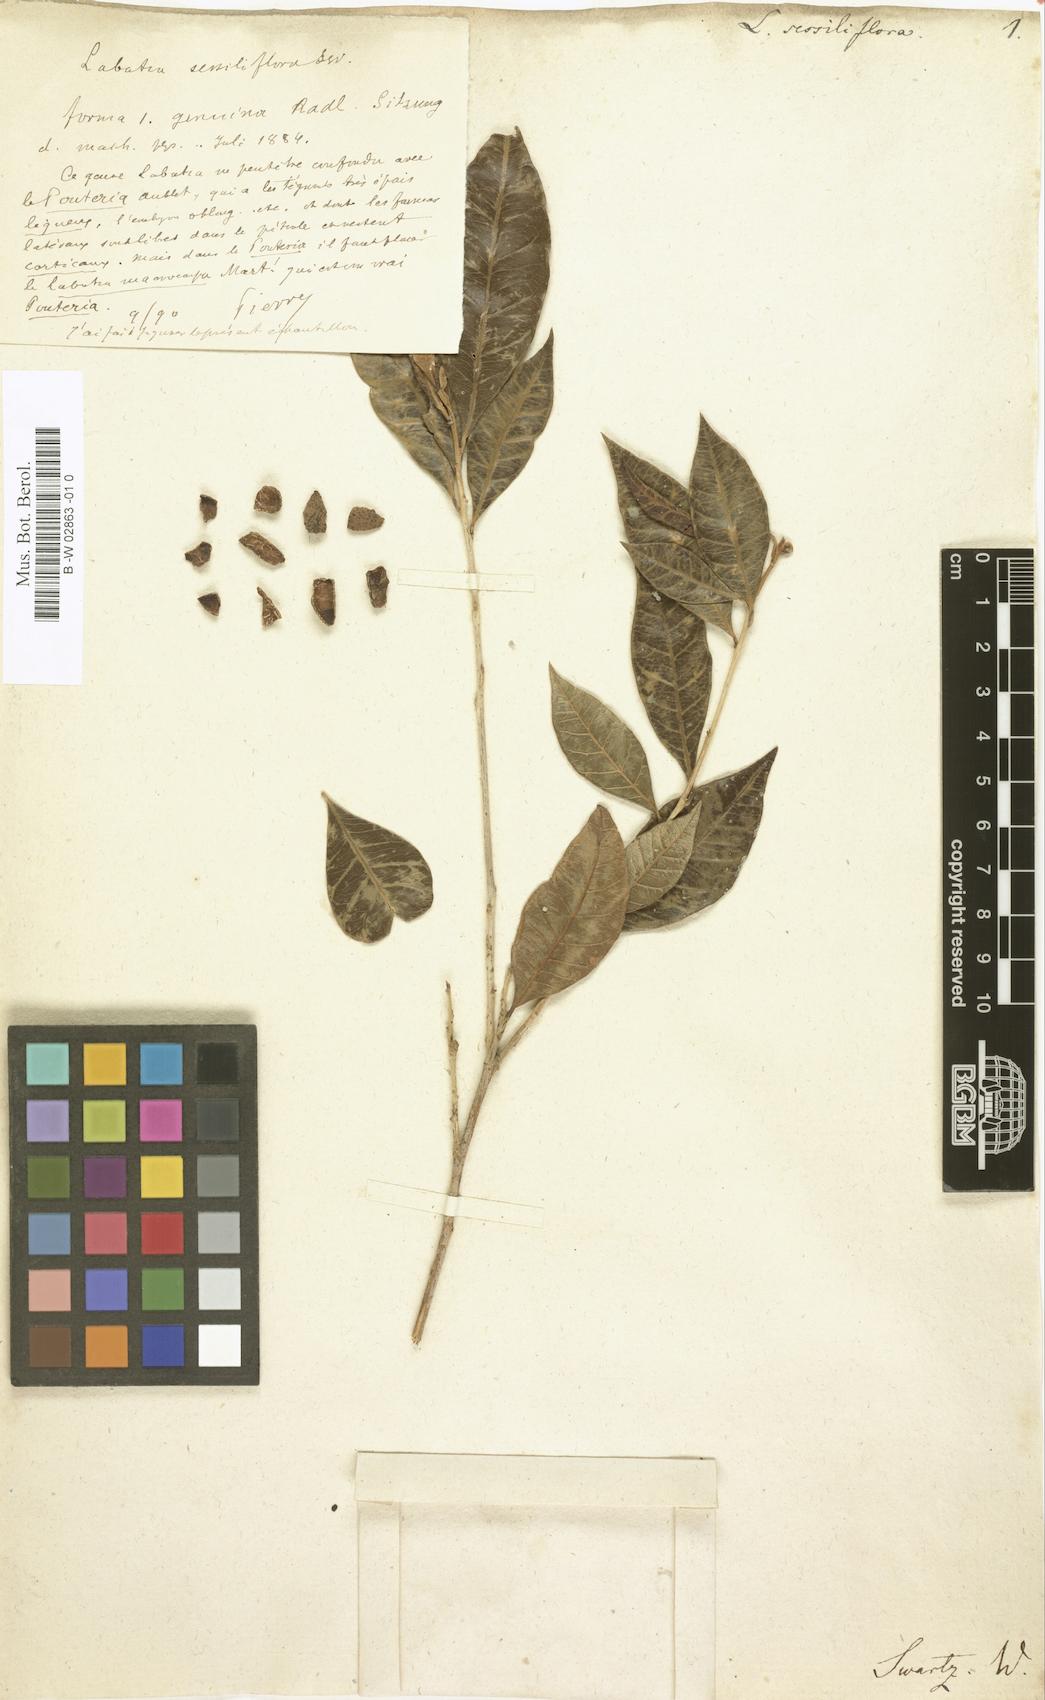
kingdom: Plantae
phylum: Tracheophyta
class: Magnoliopsida
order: Ericales
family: Sapotaceae
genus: Pouteria
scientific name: Pouteria sessiliflora
